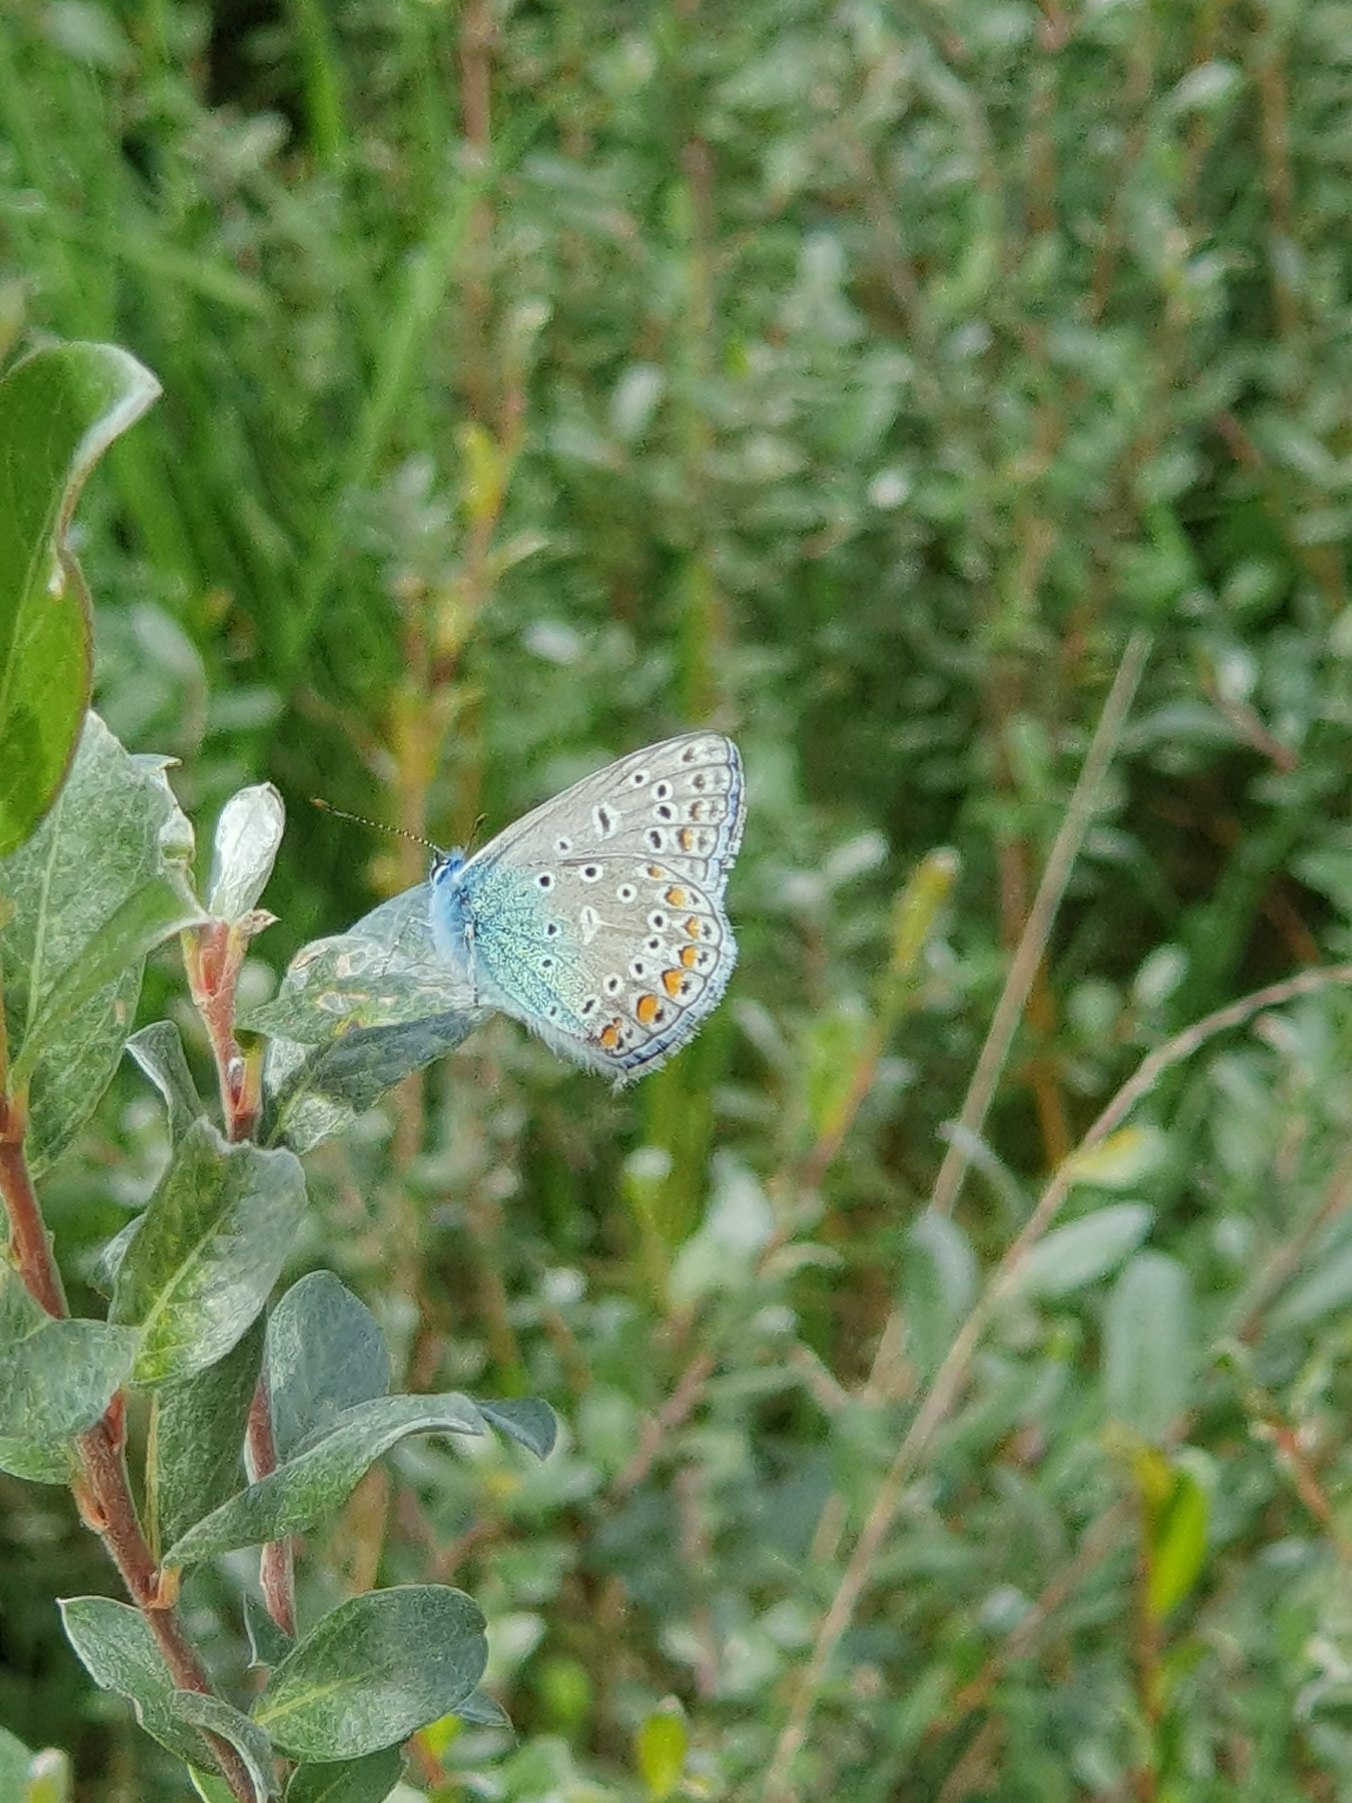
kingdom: Animalia
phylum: Arthropoda
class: Insecta
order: Lepidoptera
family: Lycaenidae
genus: Polyommatus
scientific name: Polyommatus icarus
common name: Almindelig blåfugl
